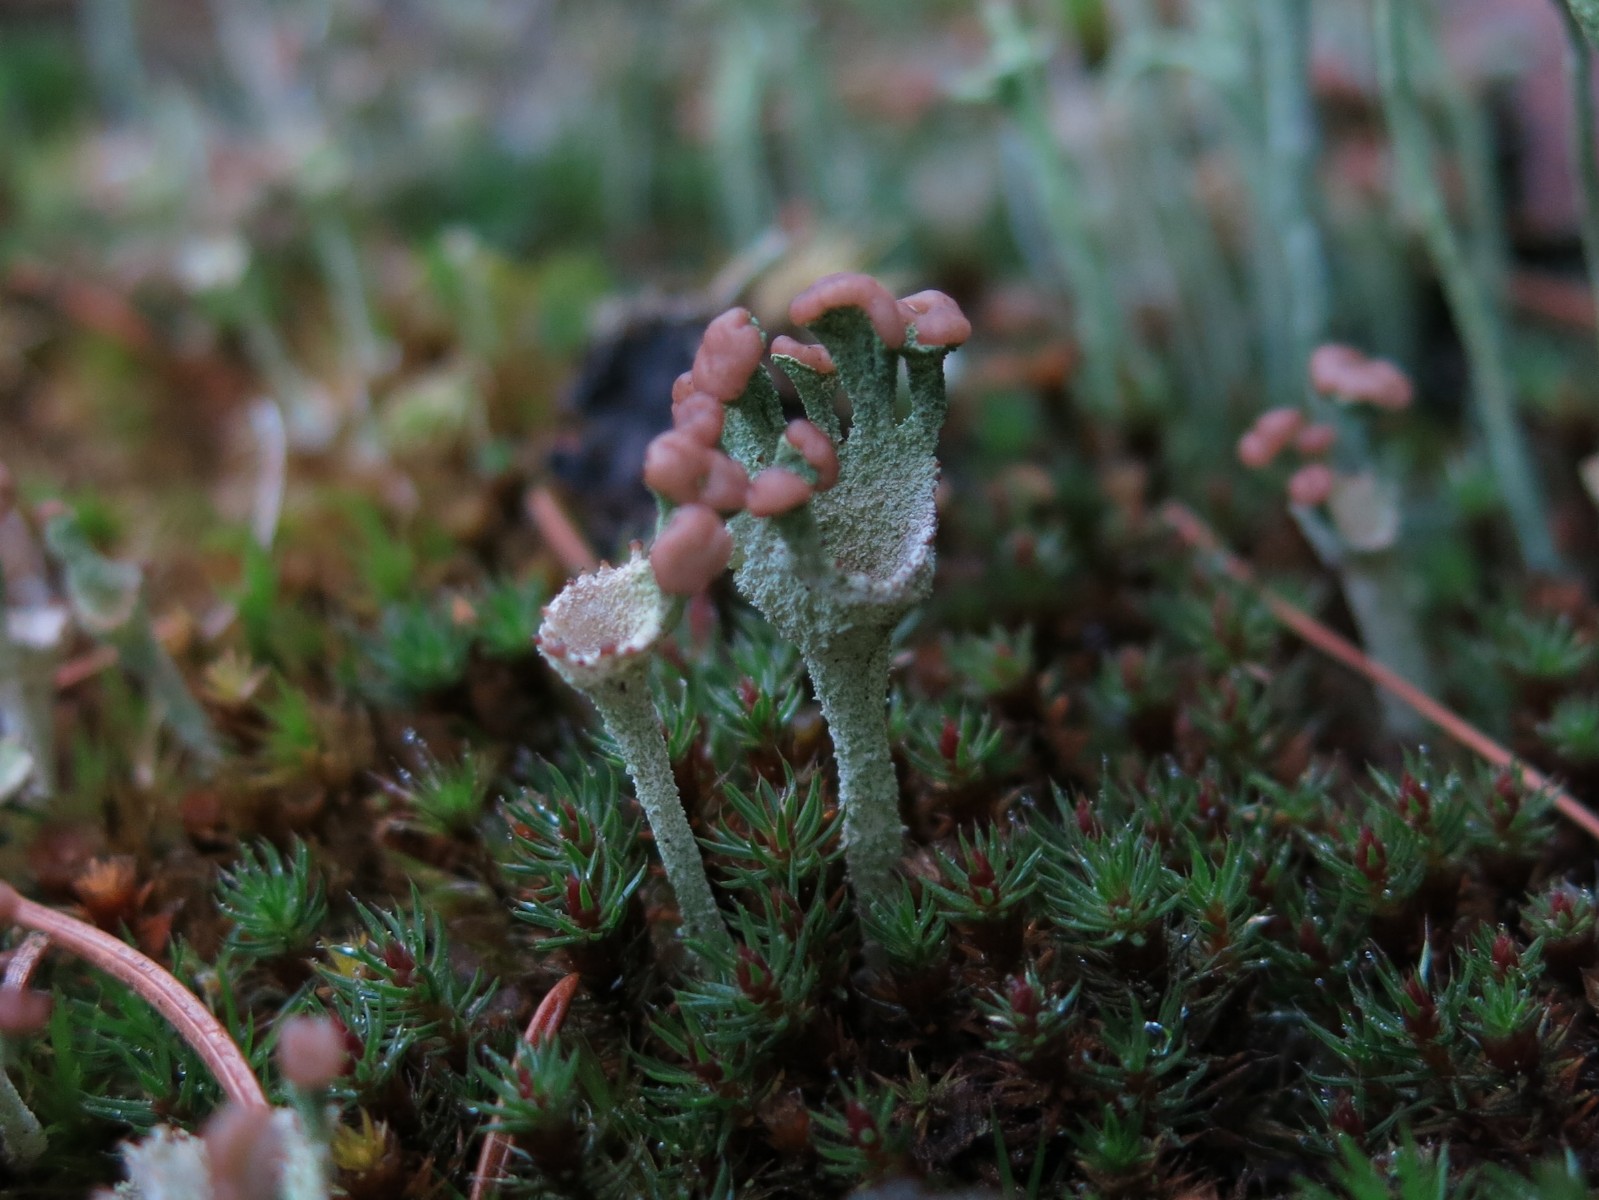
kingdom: Fungi
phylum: Ascomycota
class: Lecanoromycetes
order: Lecanorales
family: Cladoniaceae
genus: Cladonia
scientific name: Cladonia ramulosa
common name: kliddet bægerlav
